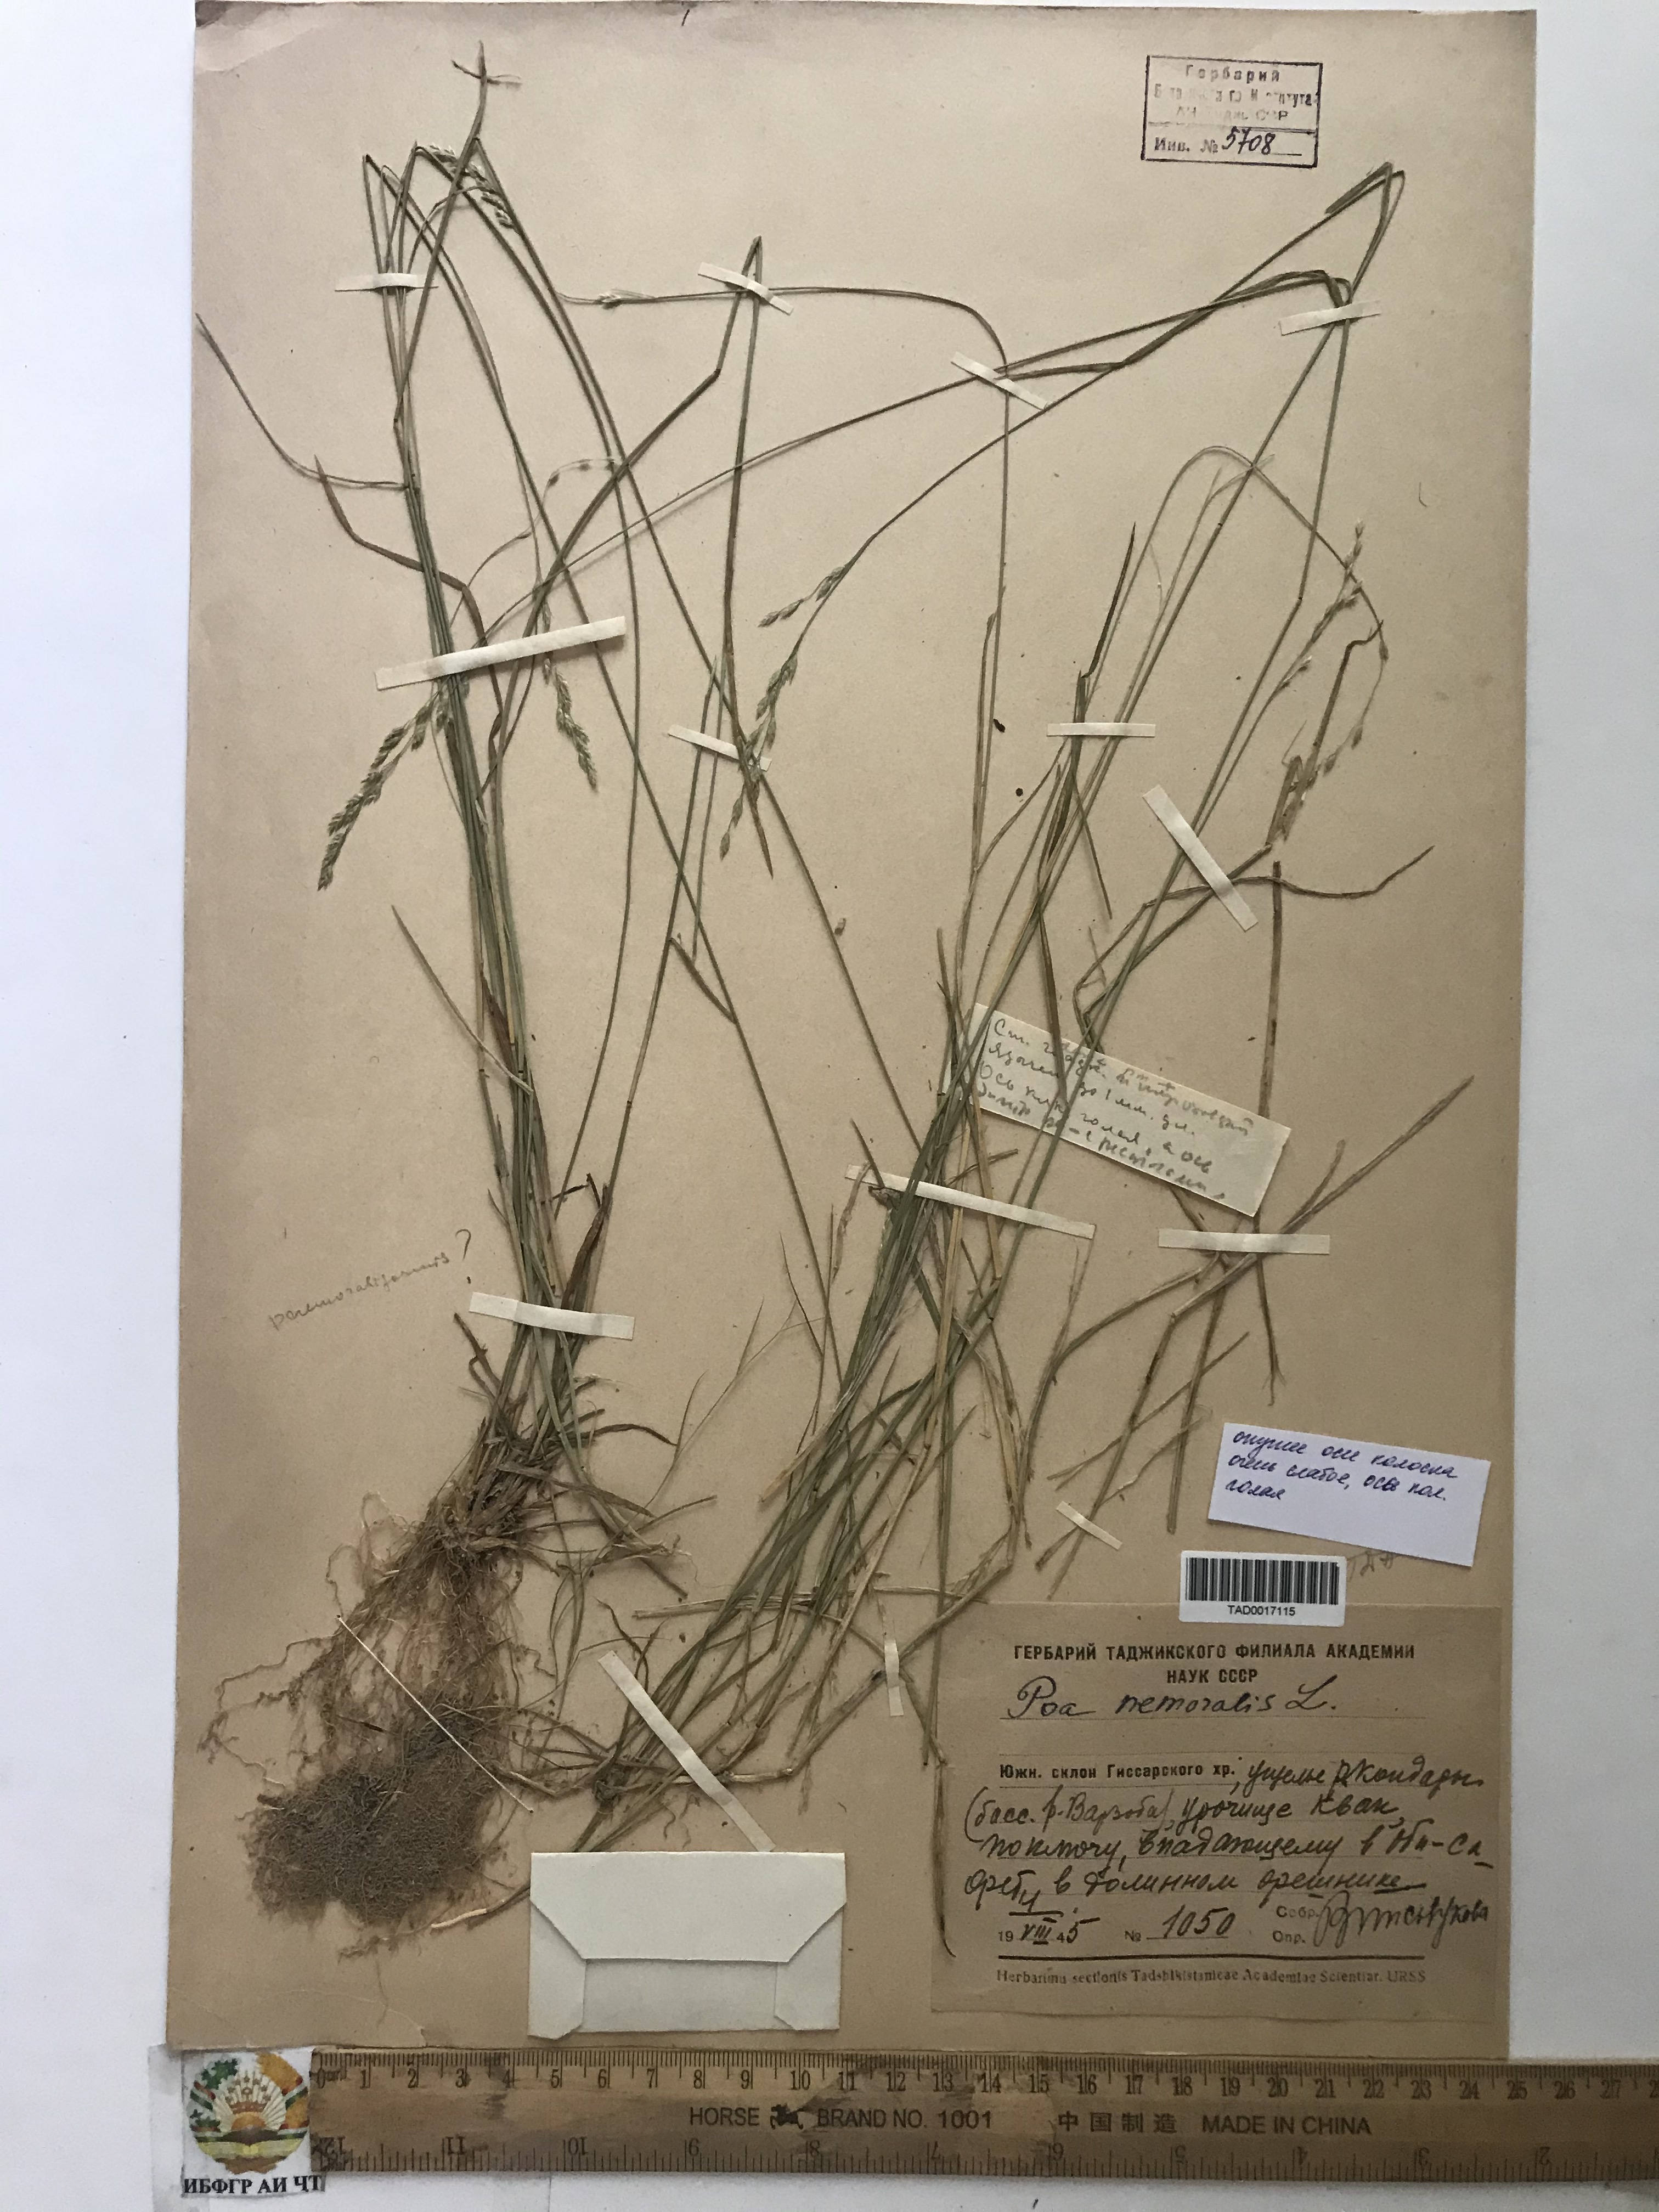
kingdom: Plantae
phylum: Tracheophyta
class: Liliopsida
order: Poales
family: Poaceae
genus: Poa
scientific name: Poa nemoralis
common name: Wood bluegrass
